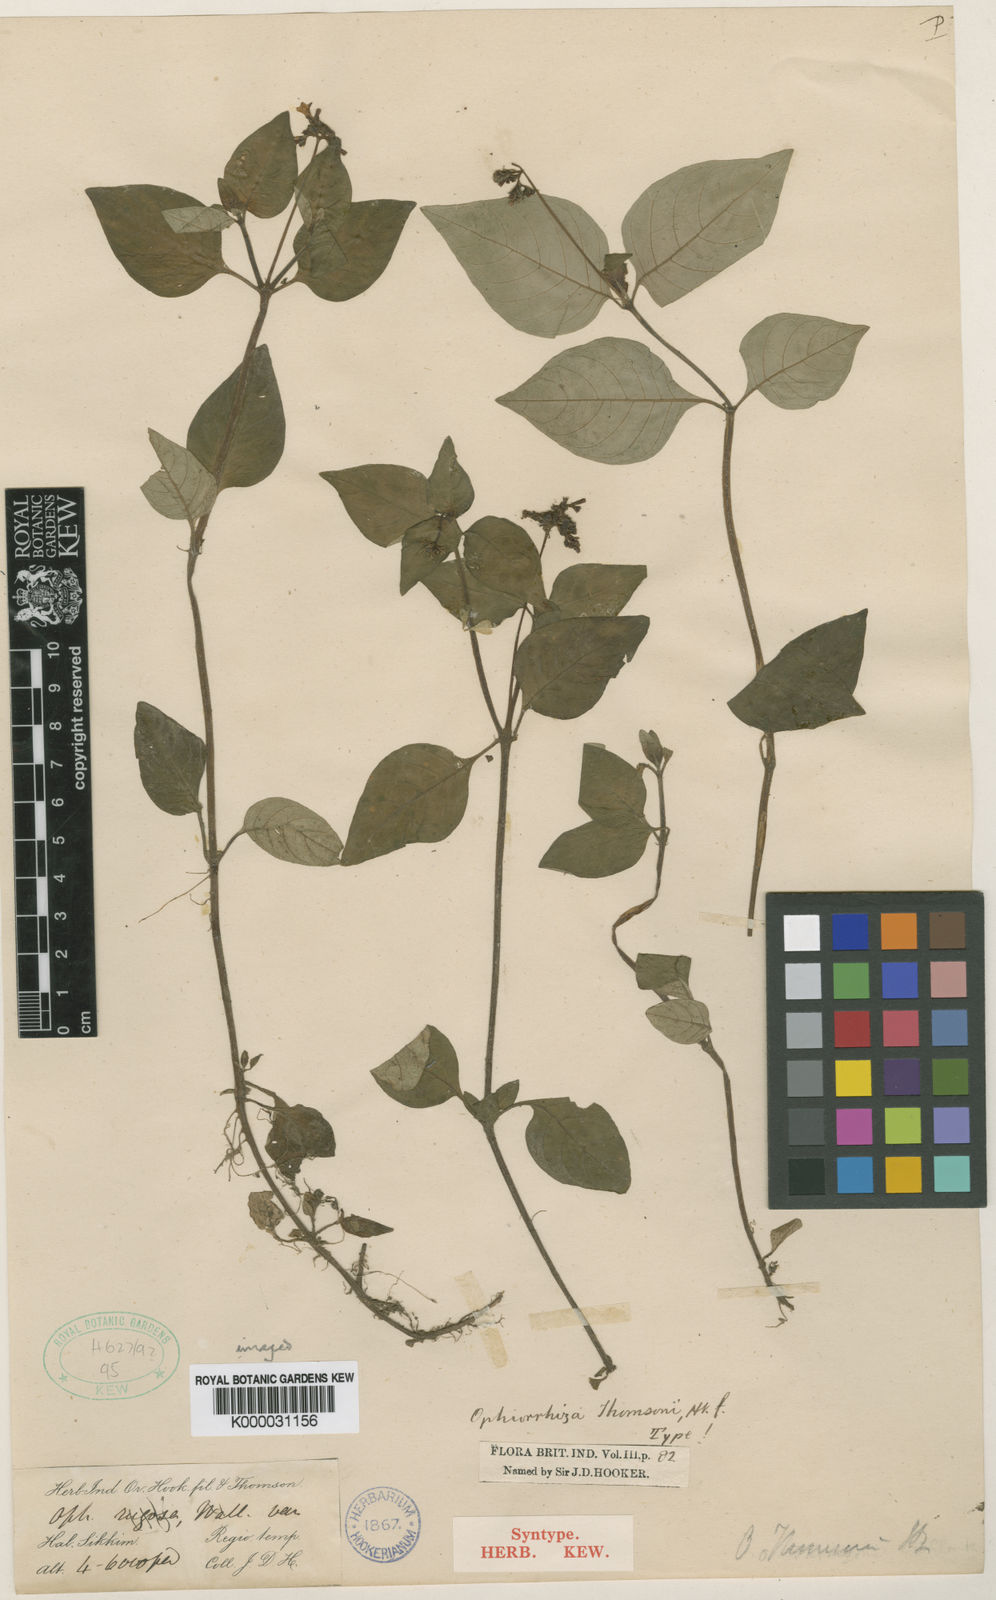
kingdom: Plantae
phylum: Tracheophyta
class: Magnoliopsida
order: Gentianales
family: Rubiaceae
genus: Ophiorrhiza
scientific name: Ophiorrhiza
